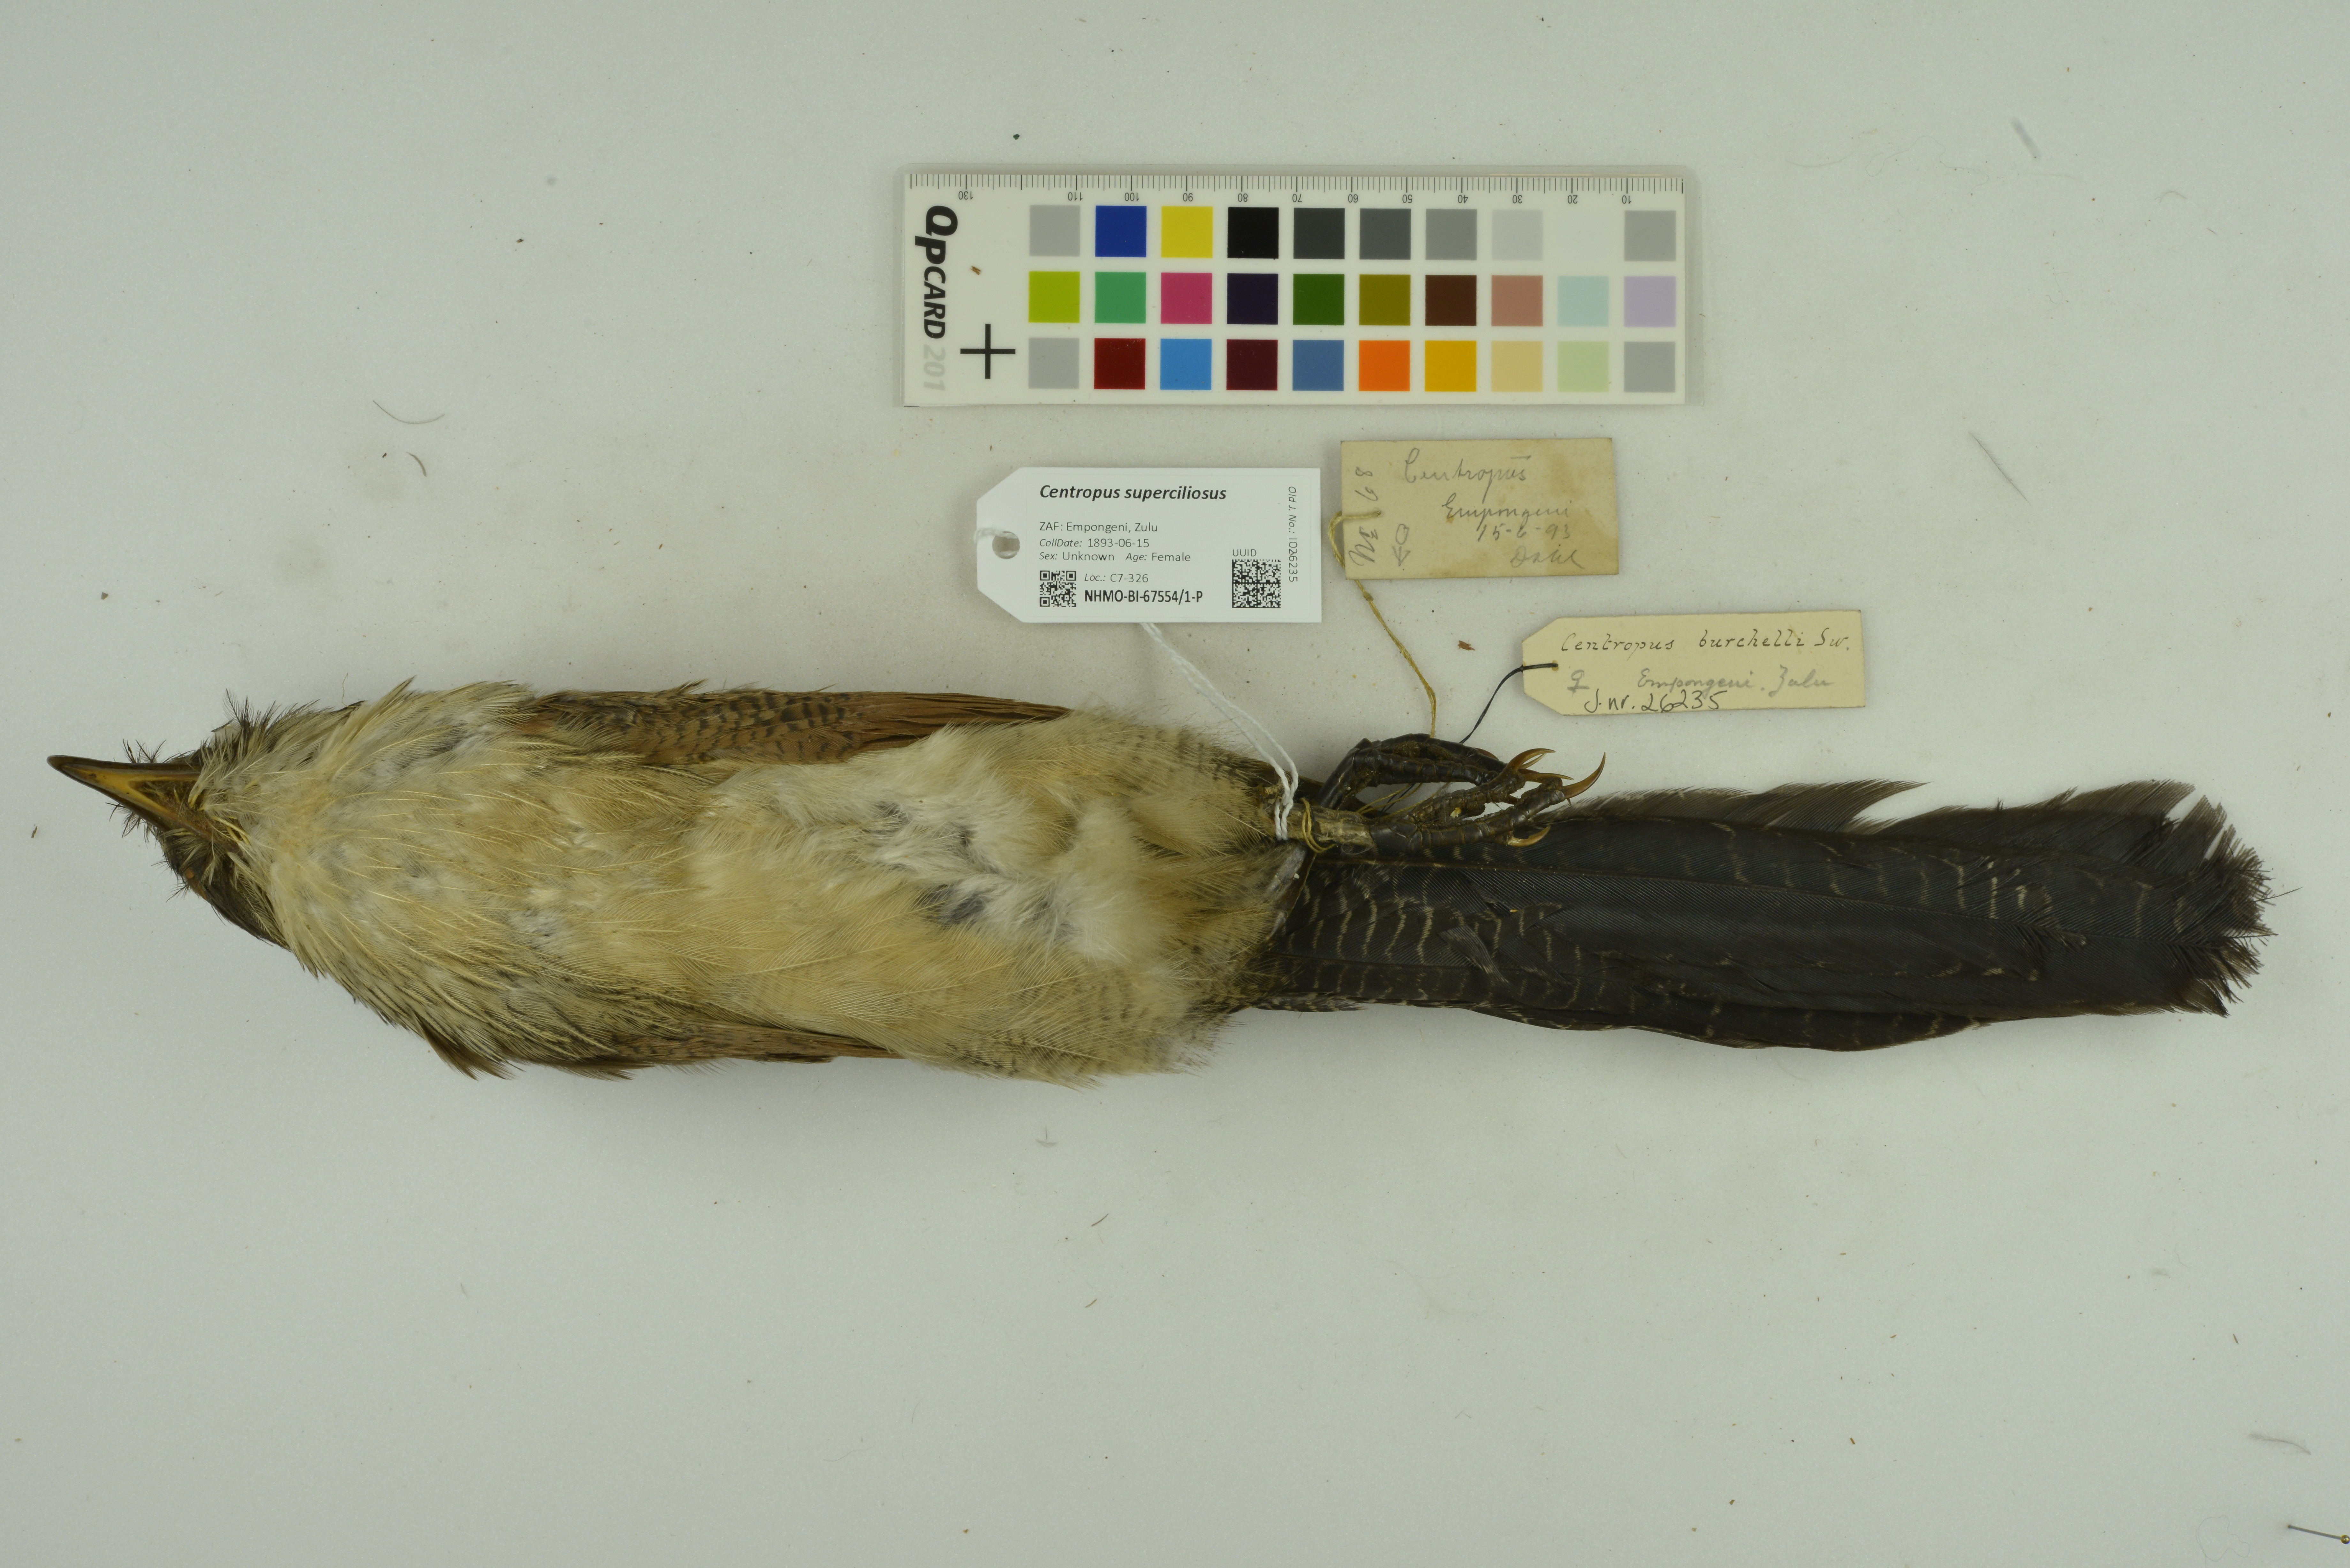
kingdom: Animalia
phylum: Chordata
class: Aves
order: Cuculiformes
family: Cuculidae
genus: Centropus
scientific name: Centropus superciliosus
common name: White-browed coucal
